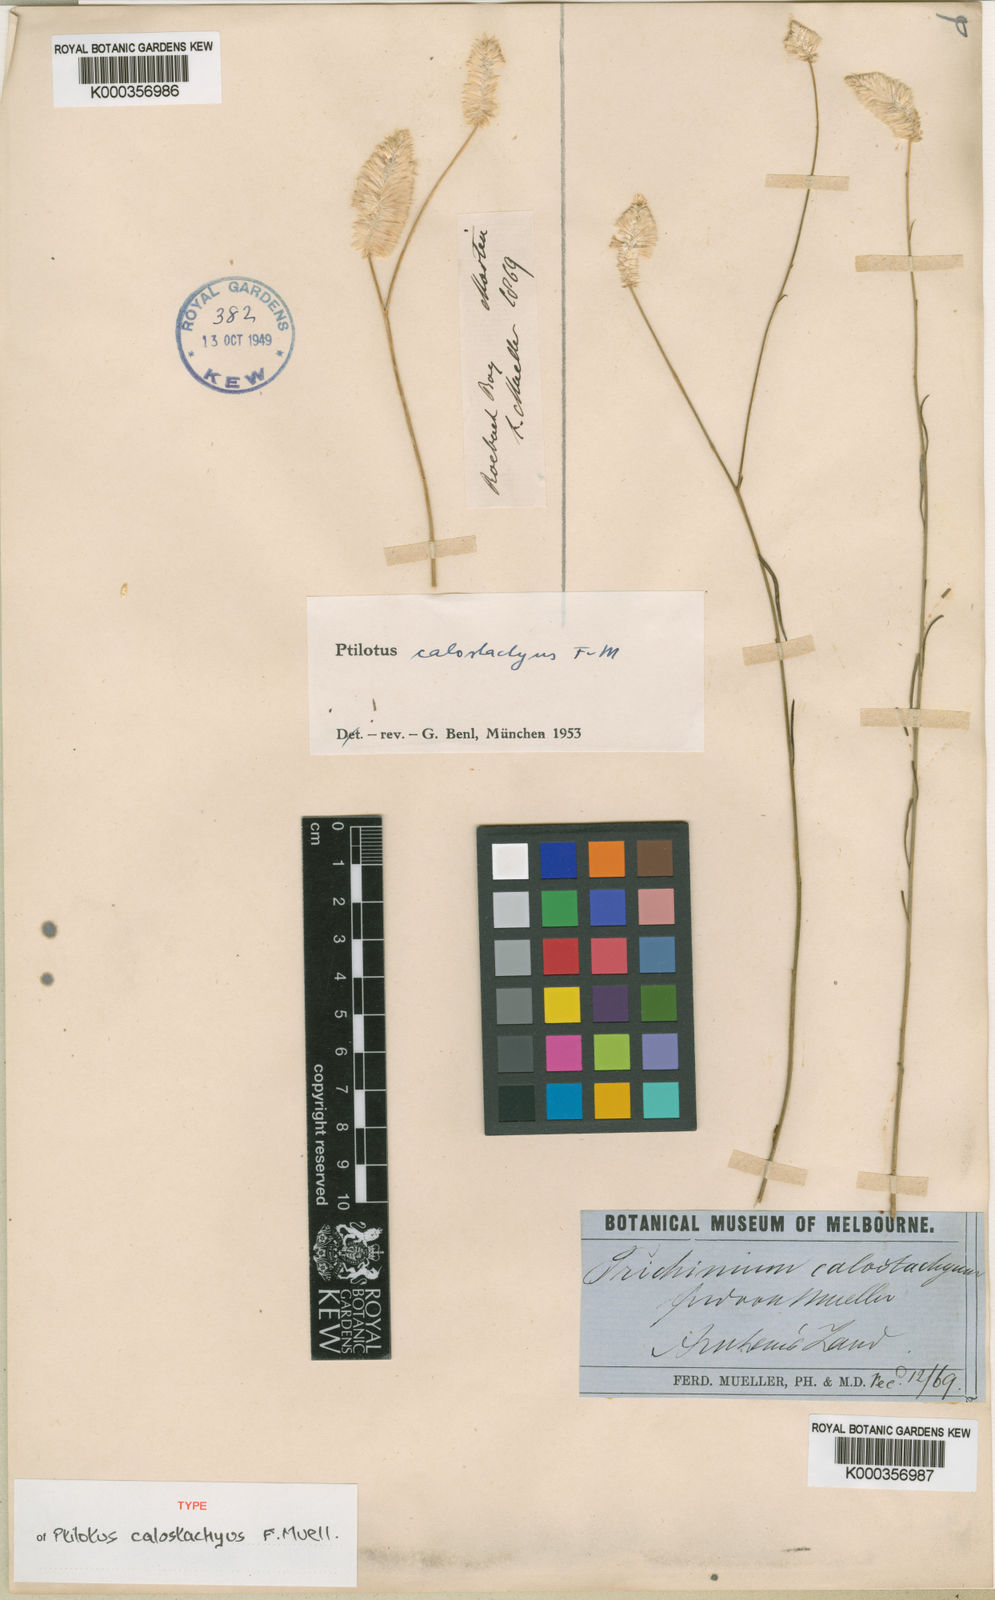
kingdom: Plantae
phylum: Tracheophyta
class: Magnoliopsida
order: Caryophyllales
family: Amaranthaceae
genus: Ptilotus
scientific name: Ptilotus calostachyus
